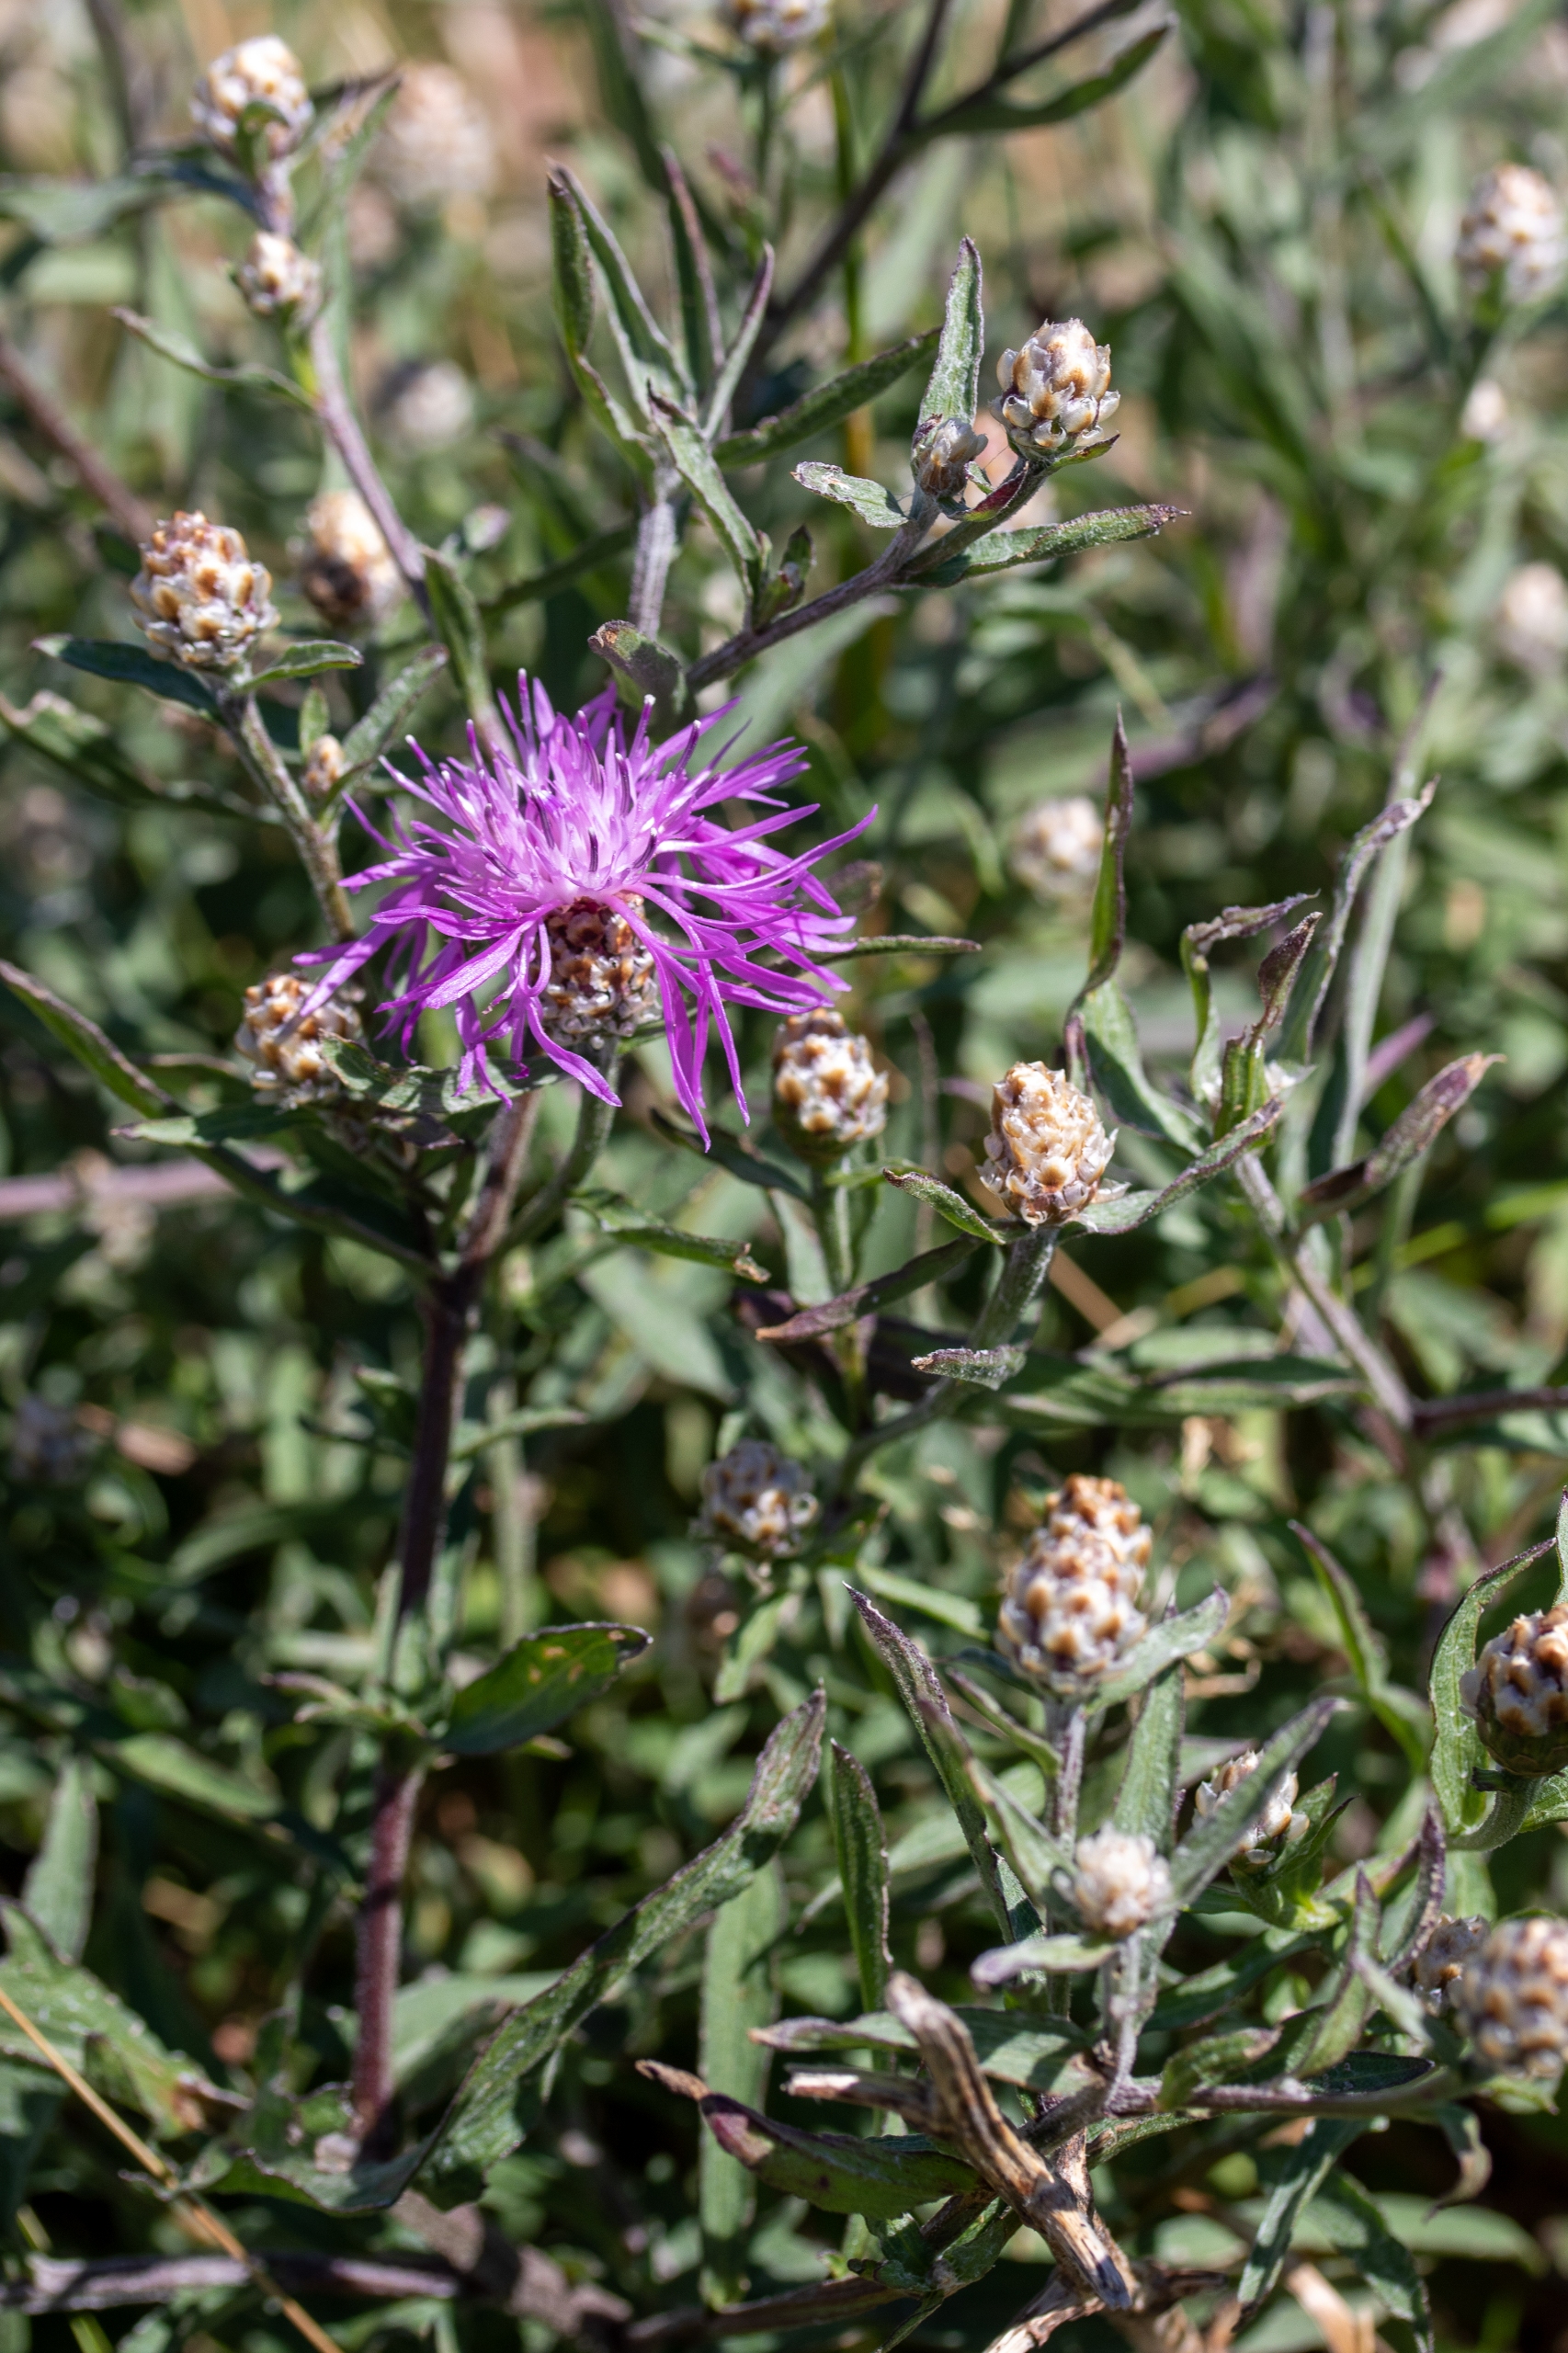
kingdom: Plantae
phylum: Tracheophyta
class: Magnoliopsida
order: Asterales
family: Asteraceae
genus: Centaurea
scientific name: Centaurea jacea
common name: Almindelig knopurt
